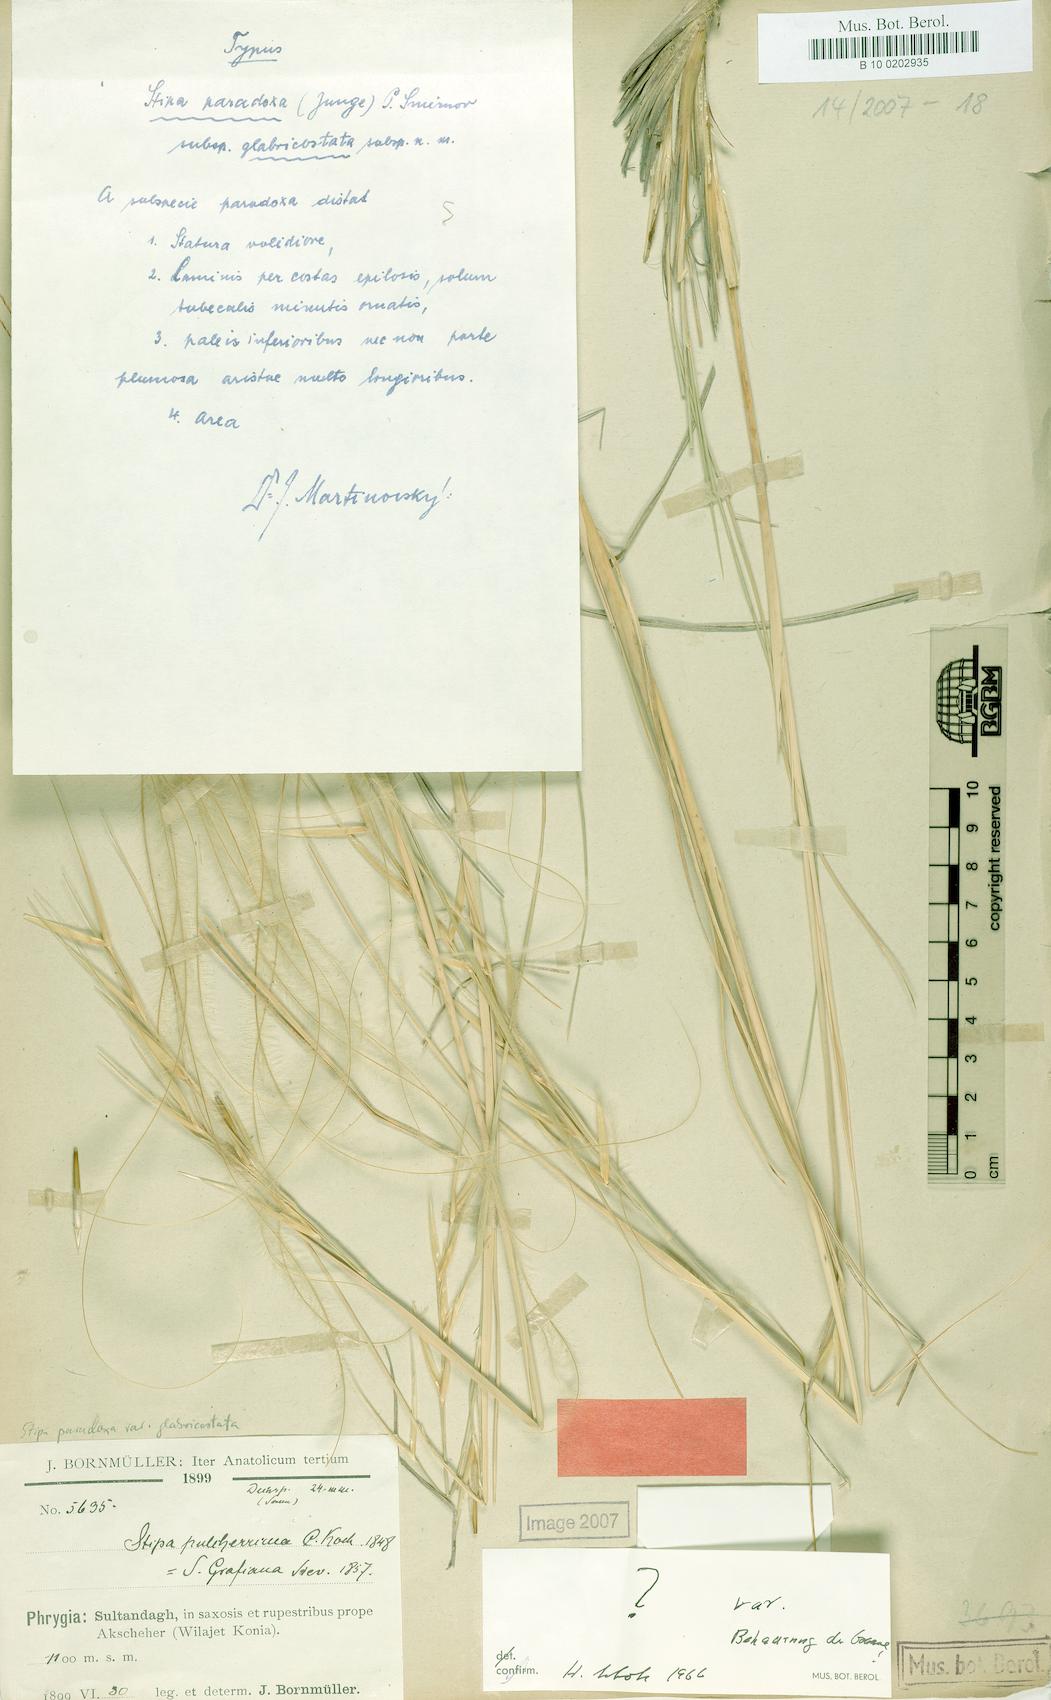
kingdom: Plantae
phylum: Tracheophyta
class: Liliopsida
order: Poales
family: Poaceae
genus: Stipa
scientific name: Stipa syreistschikowii
